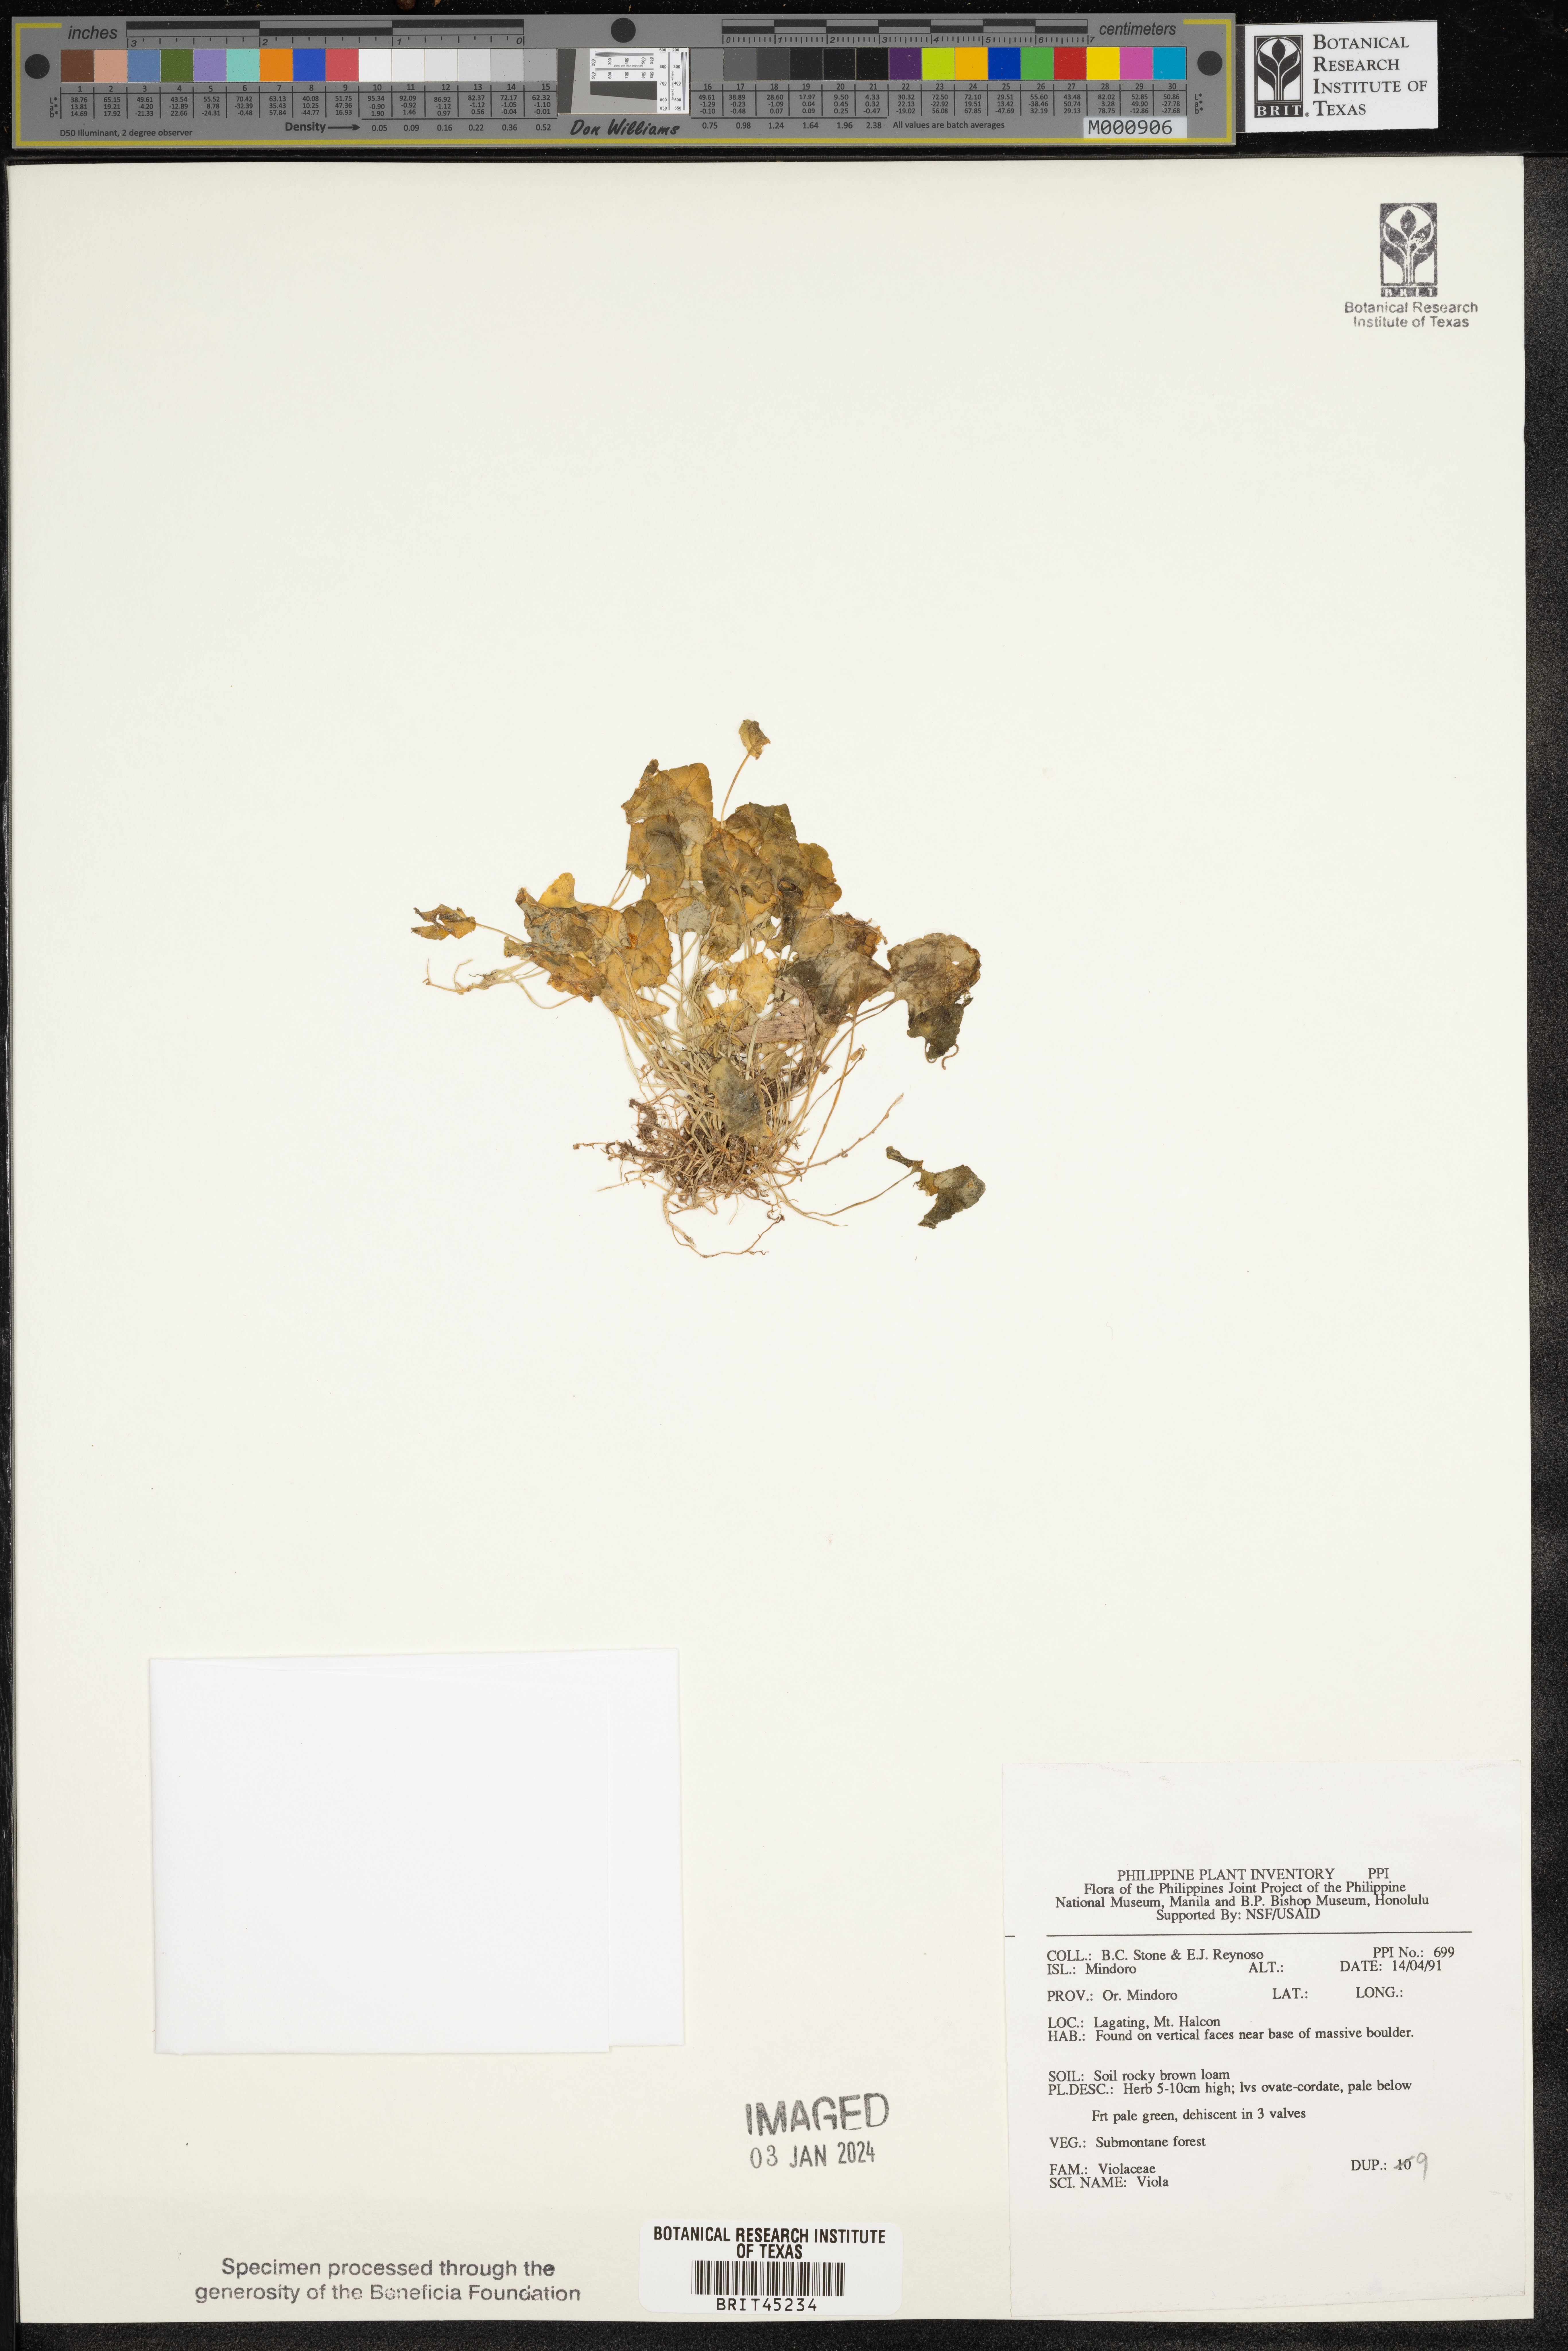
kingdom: Plantae
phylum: Tracheophyta
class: Magnoliopsida
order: Malpighiales
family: Violaceae
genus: Viola
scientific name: Viola
